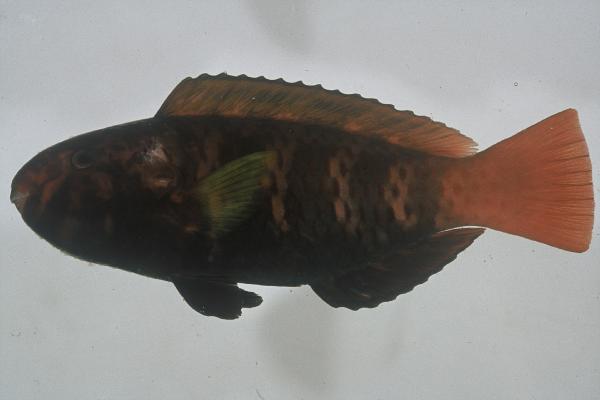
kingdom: Animalia
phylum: Chordata
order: Perciformes
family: Scaridae
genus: Chlorurus
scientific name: Chlorurus atrilunula
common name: Bluemoon parrotfish
